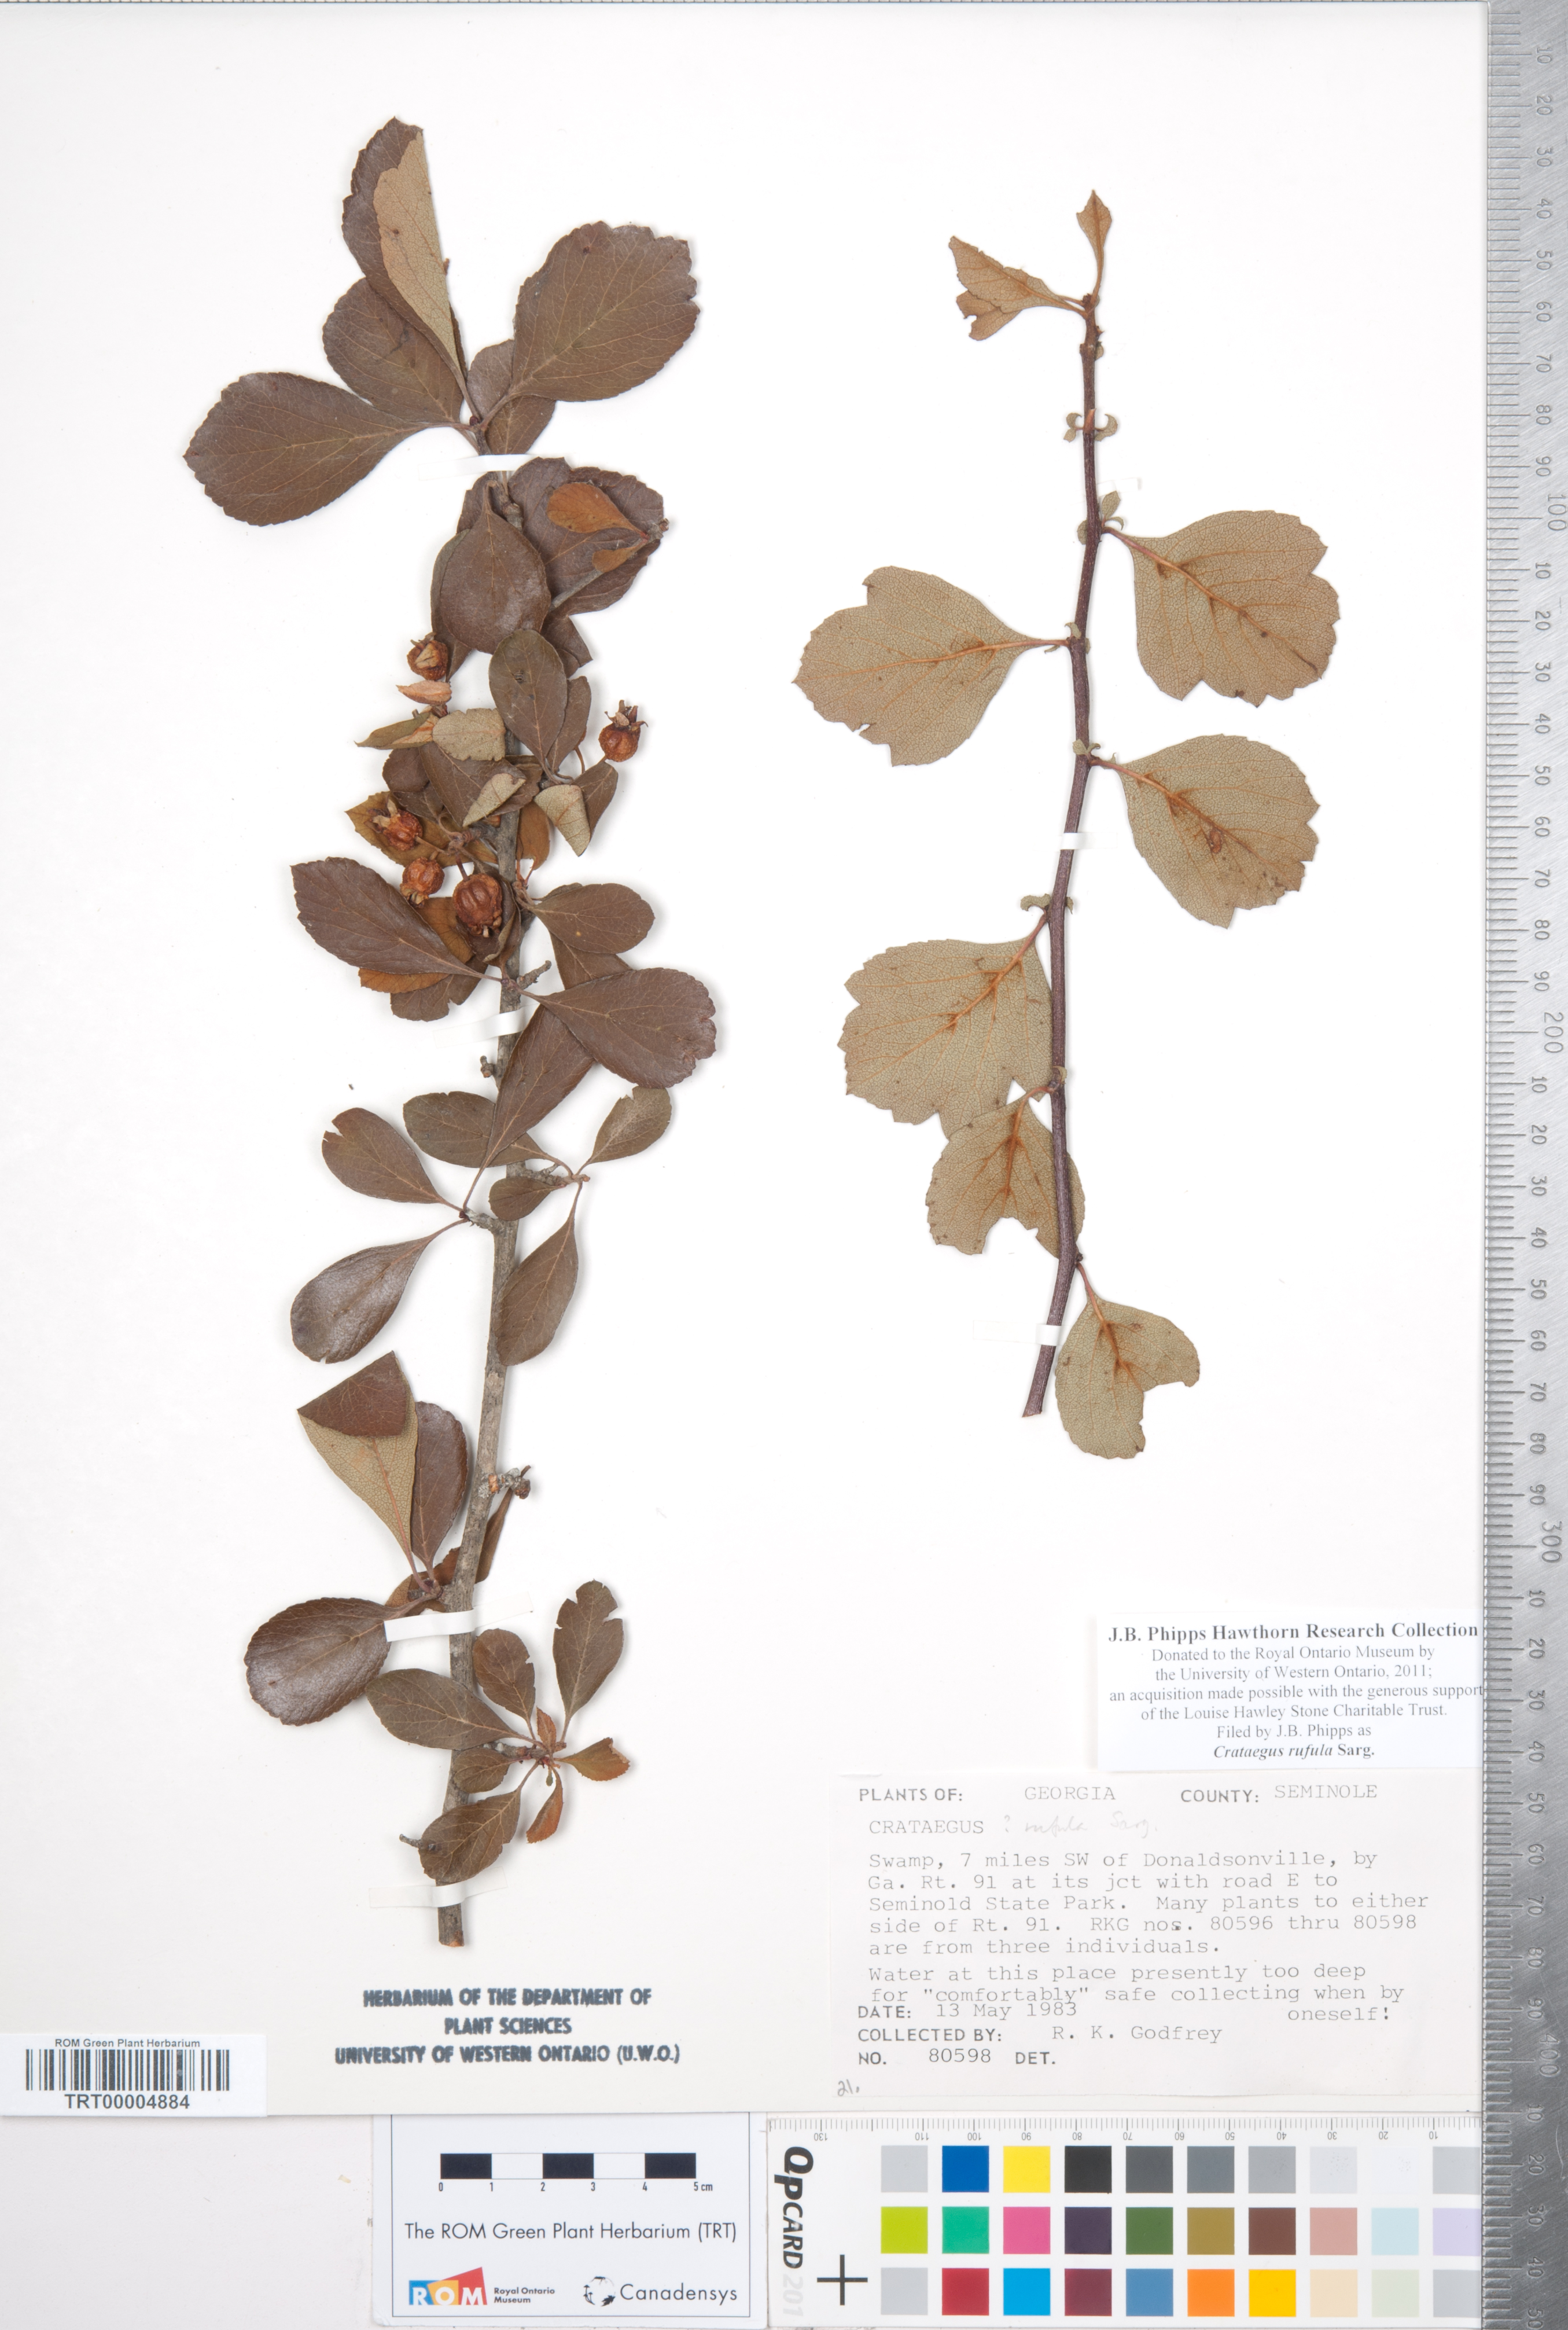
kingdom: Plantae
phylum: Tracheophyta
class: Magnoliopsida
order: Rosales
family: Rosaceae
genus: Crataegus
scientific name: Crataegus rufula
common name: Rufous mayhaw
